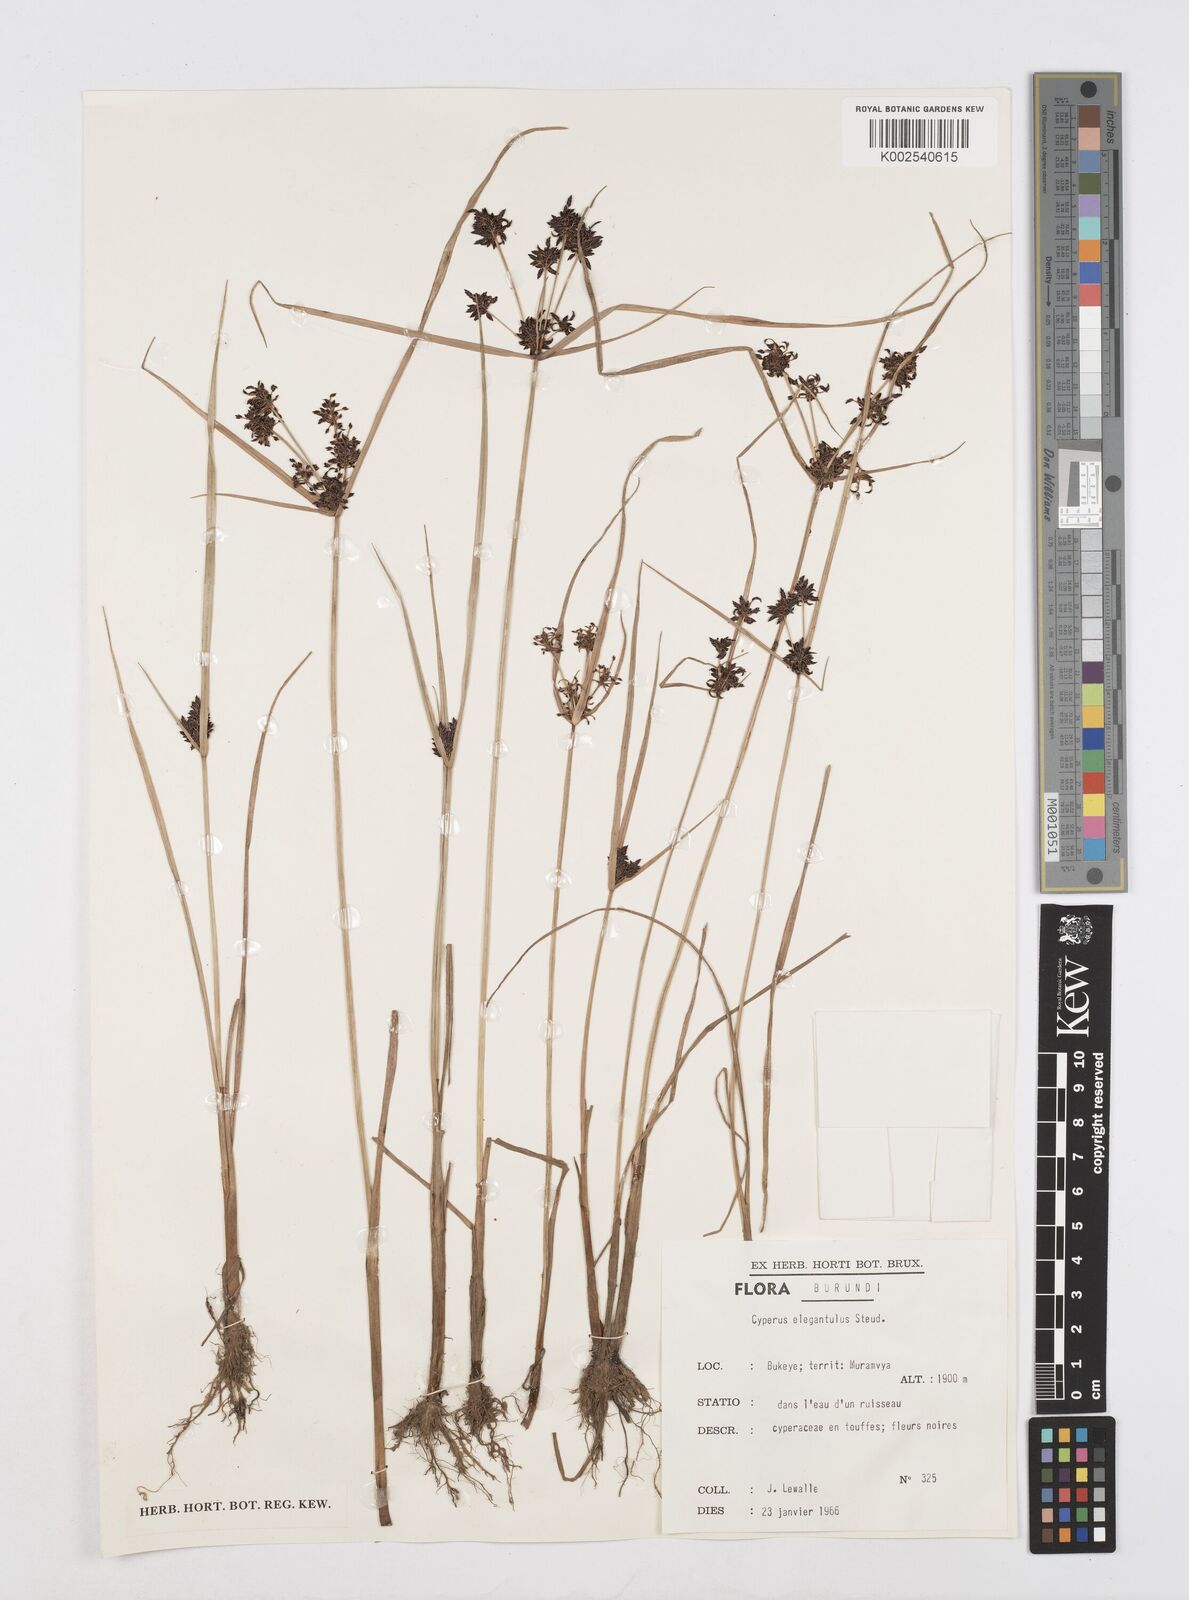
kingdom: Plantae
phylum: Tracheophyta
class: Liliopsida
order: Poales
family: Cyperaceae
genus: Cyperus
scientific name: Cyperus elegantulus
